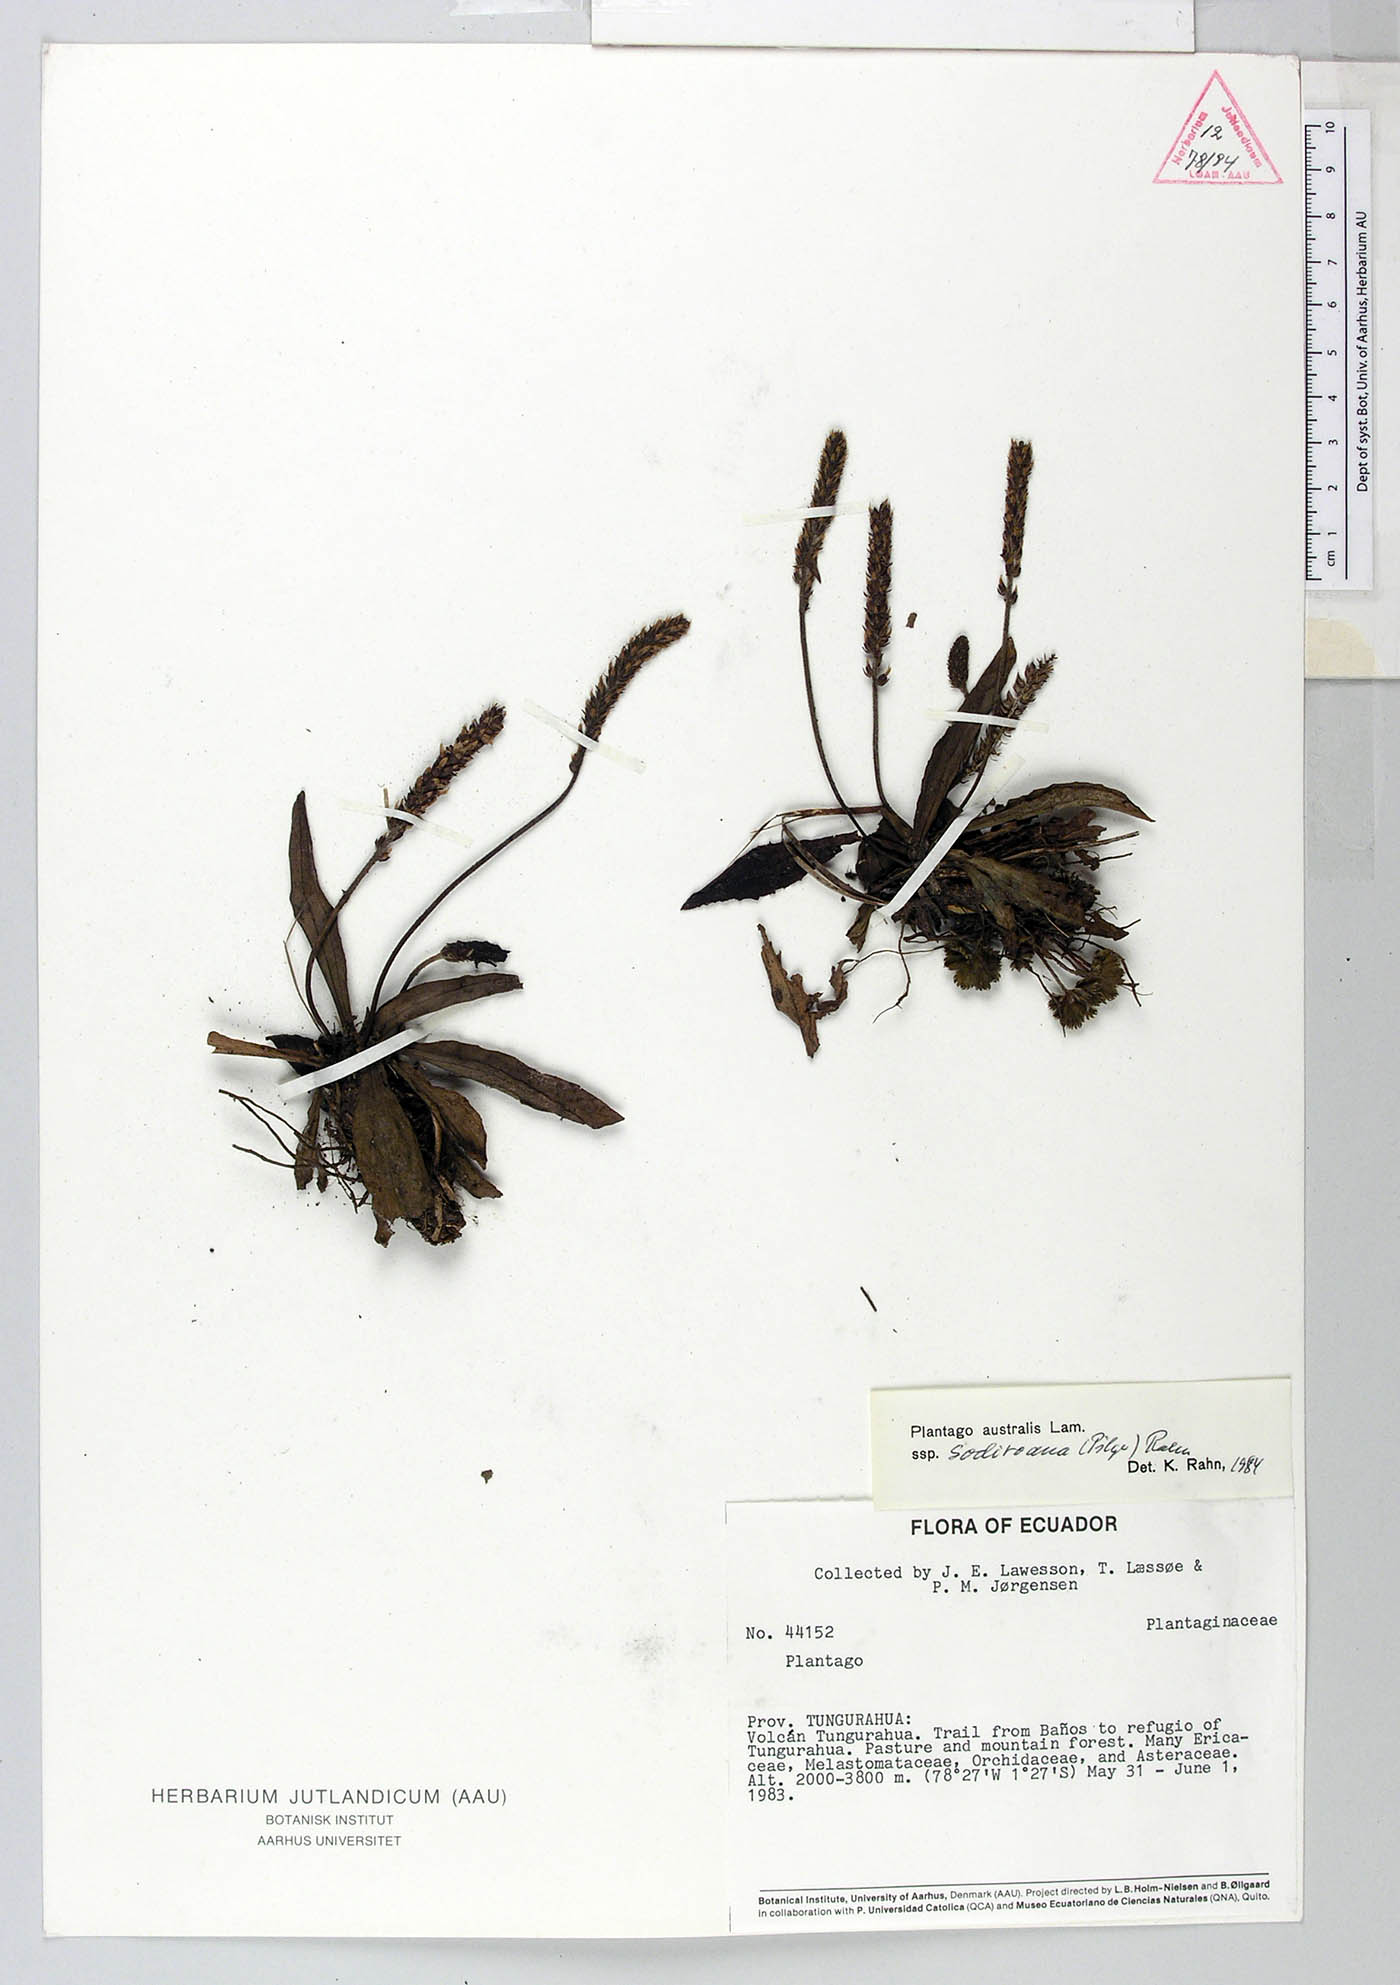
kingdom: Plantae
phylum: Tracheophyta
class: Magnoliopsida
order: Lamiales
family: Plantaginaceae
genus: Plantago
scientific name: Plantago australis
